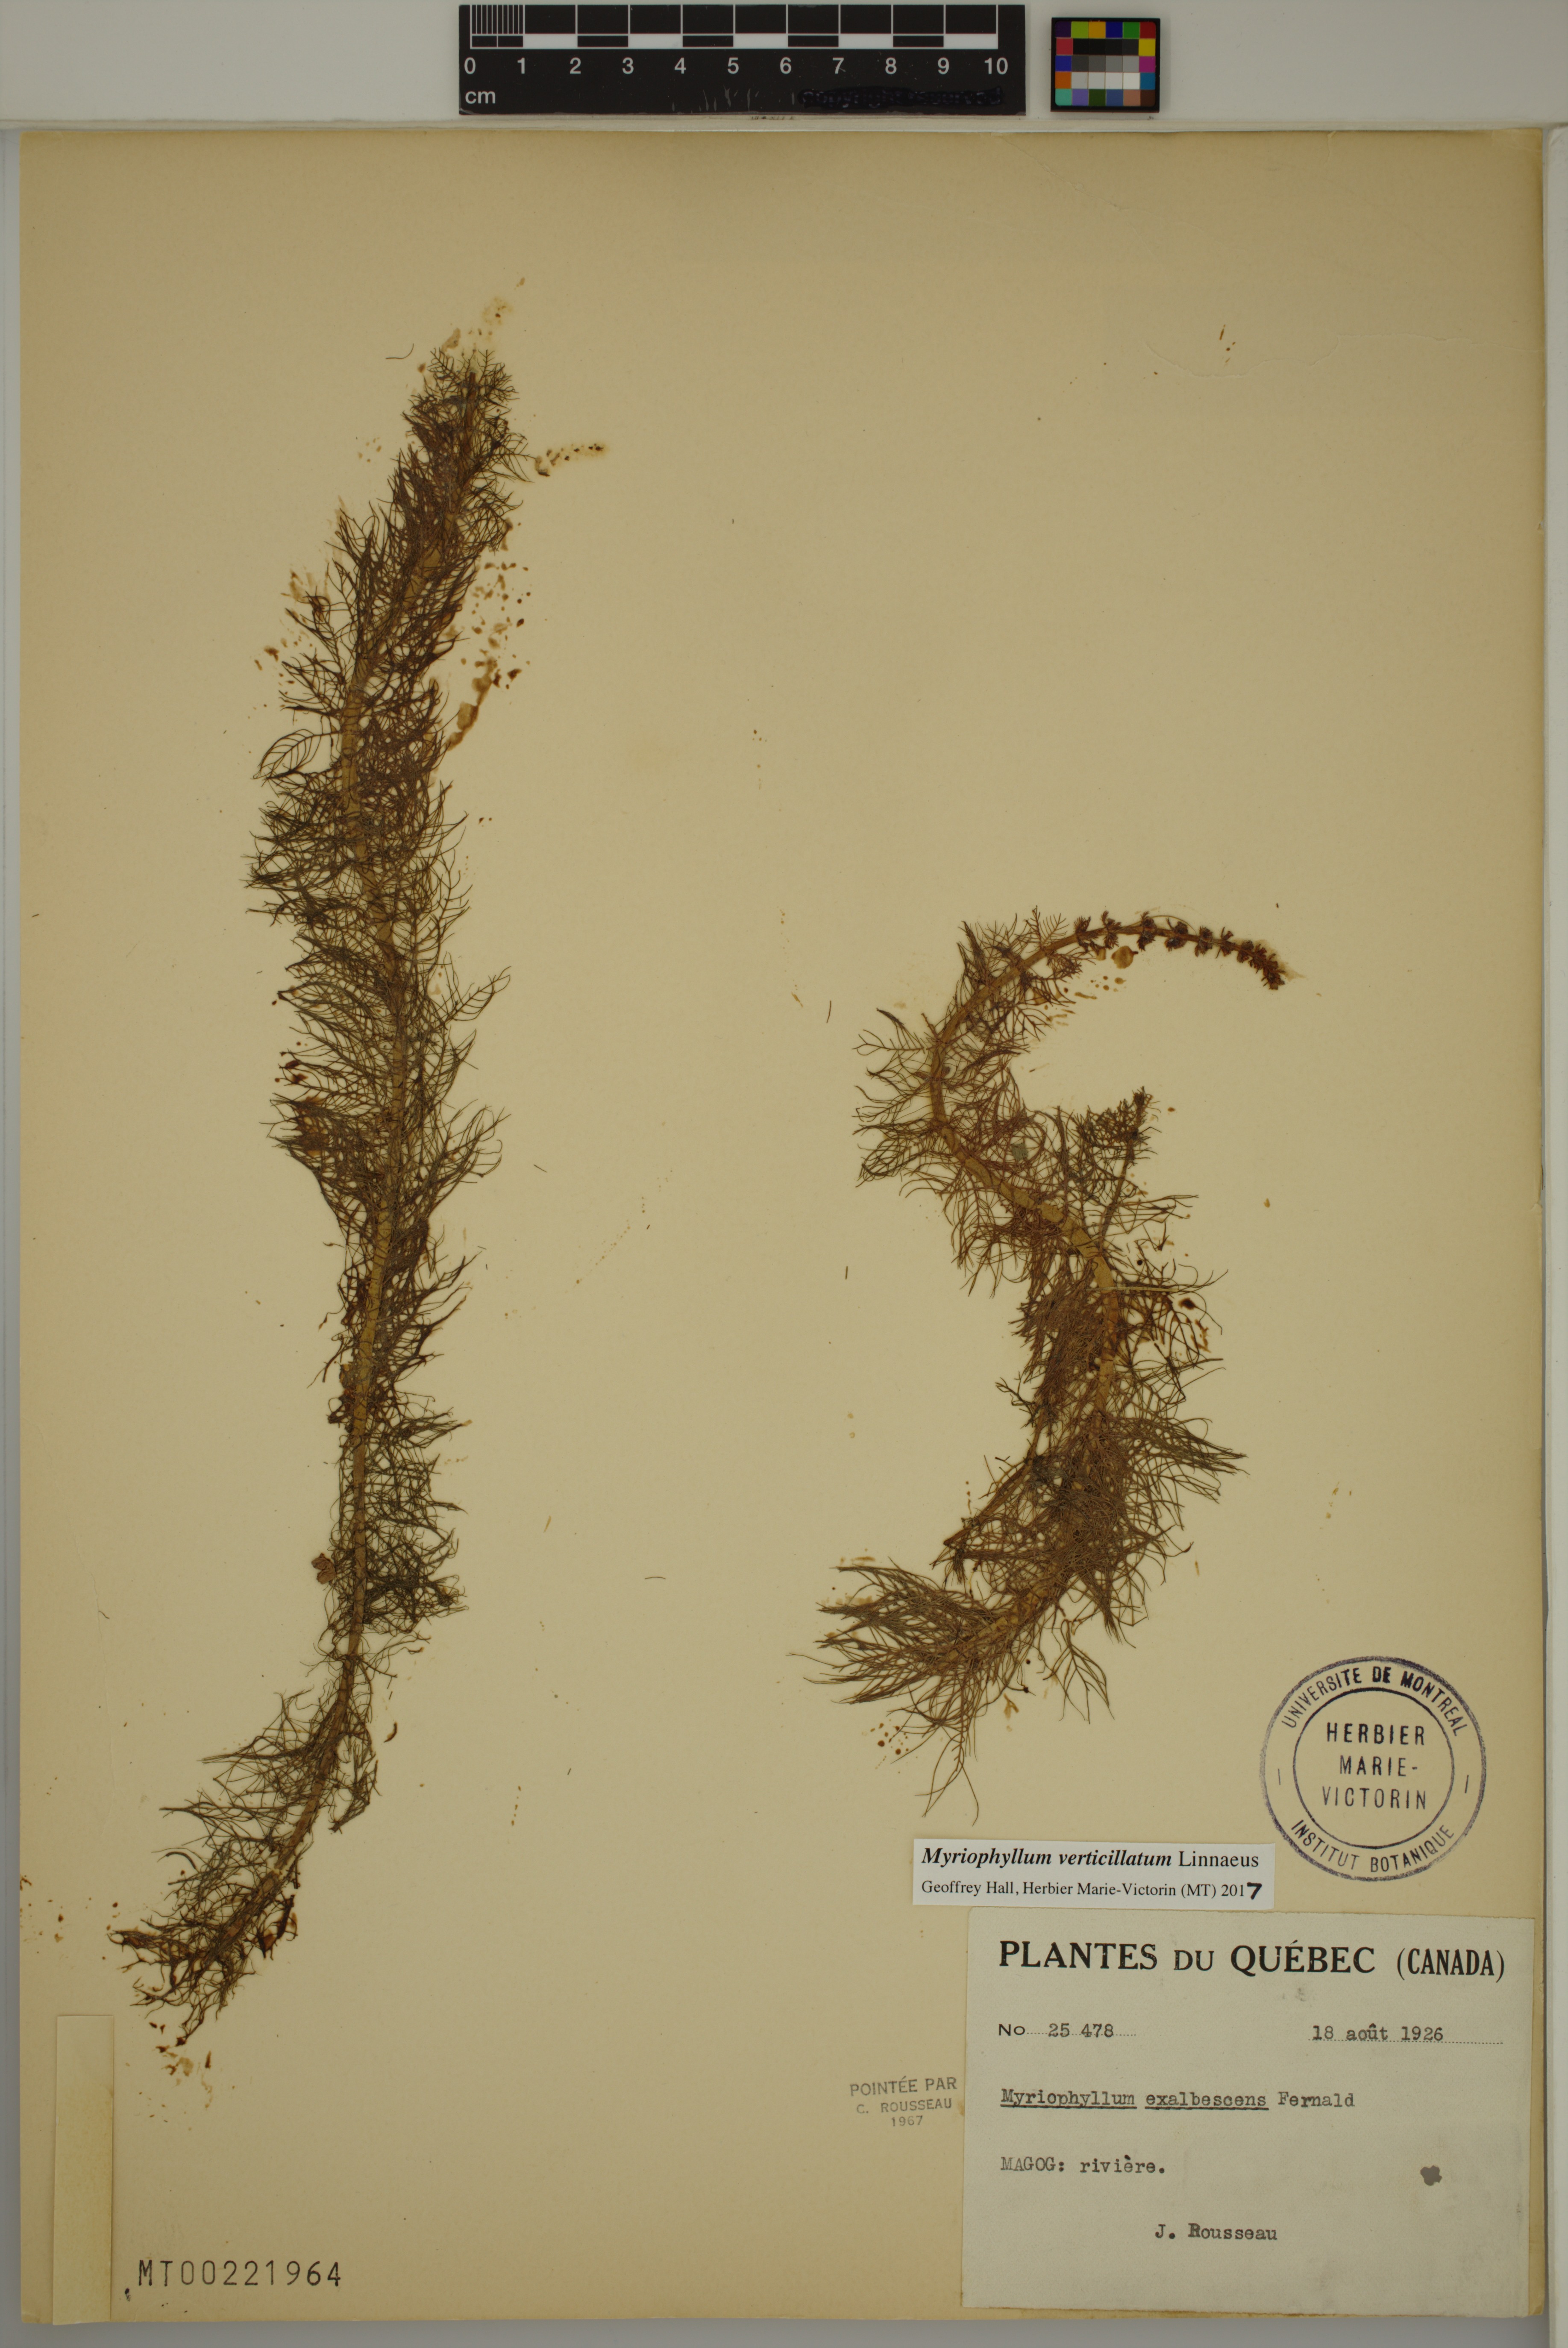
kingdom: Plantae
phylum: Tracheophyta
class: Magnoliopsida
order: Saxifragales
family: Haloragaceae
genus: Myriophyllum
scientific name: Myriophyllum verticillatum
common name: Whorled water-milfoil
